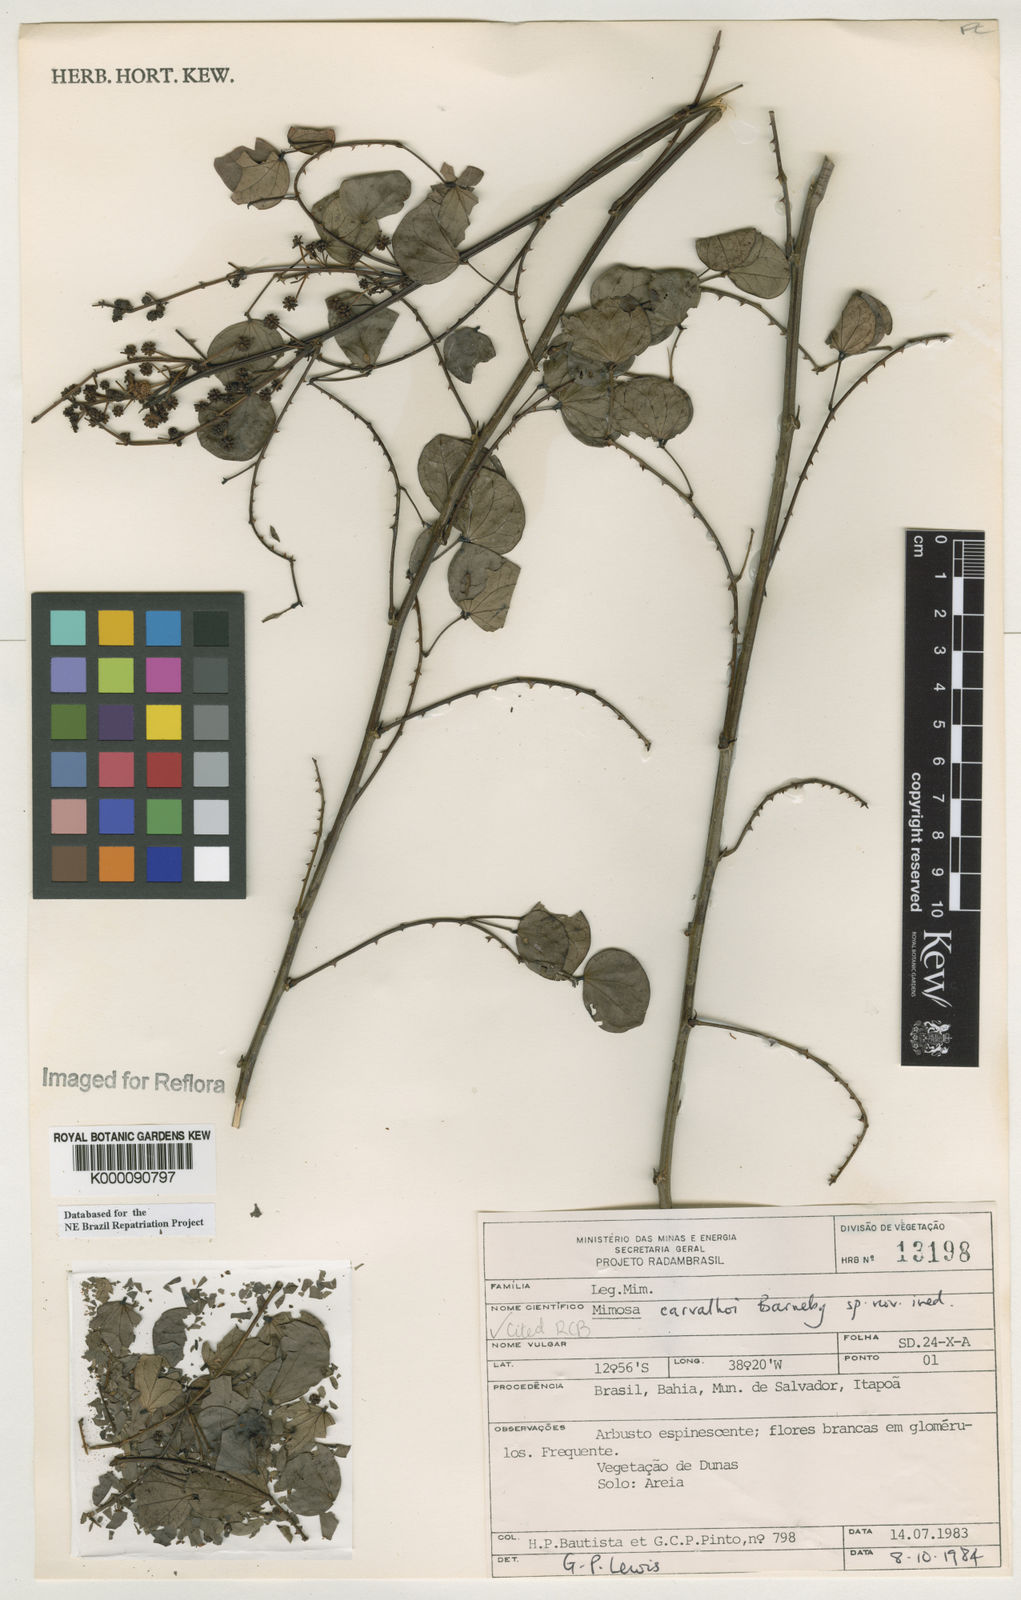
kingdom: Plantae
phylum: Tracheophyta
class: Magnoliopsida
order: Fabales
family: Fabaceae
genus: Mimosa
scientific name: Mimosa carvalhoi
